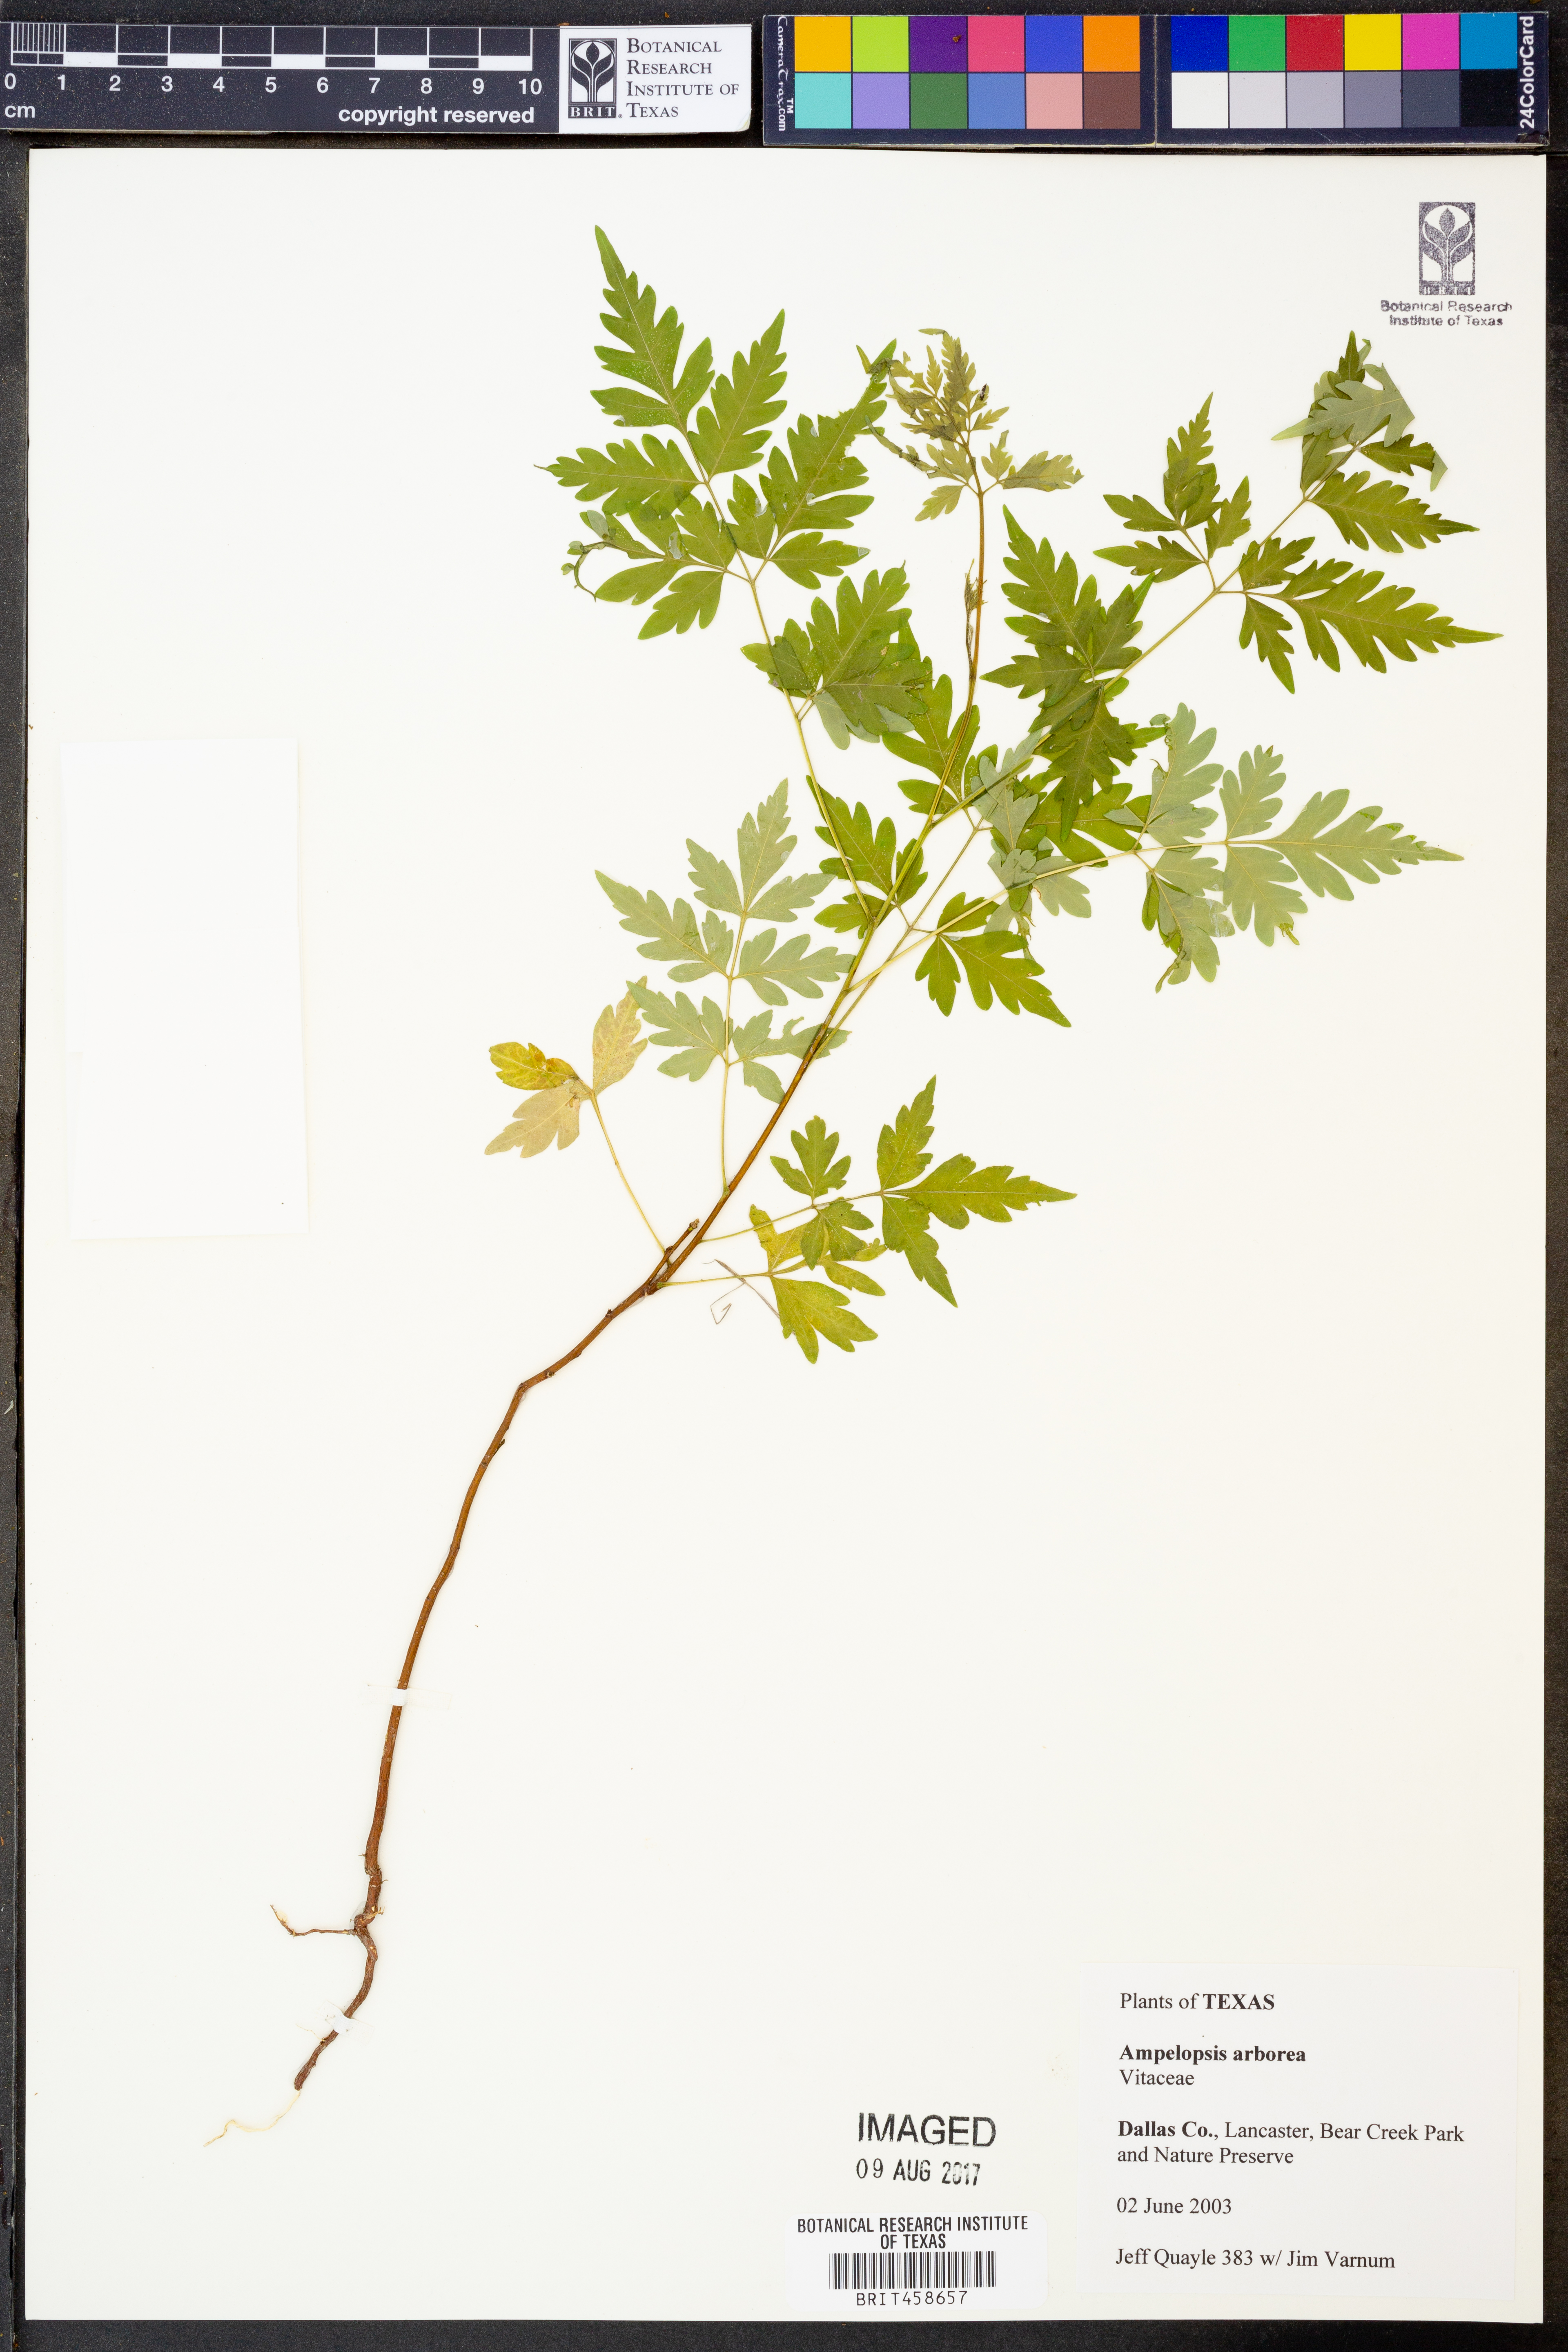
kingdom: Plantae
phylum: Tracheophyta
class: Magnoliopsida
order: Vitales
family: Vitaceae
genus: Nekemias
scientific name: Nekemias arborea
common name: Peppervine
